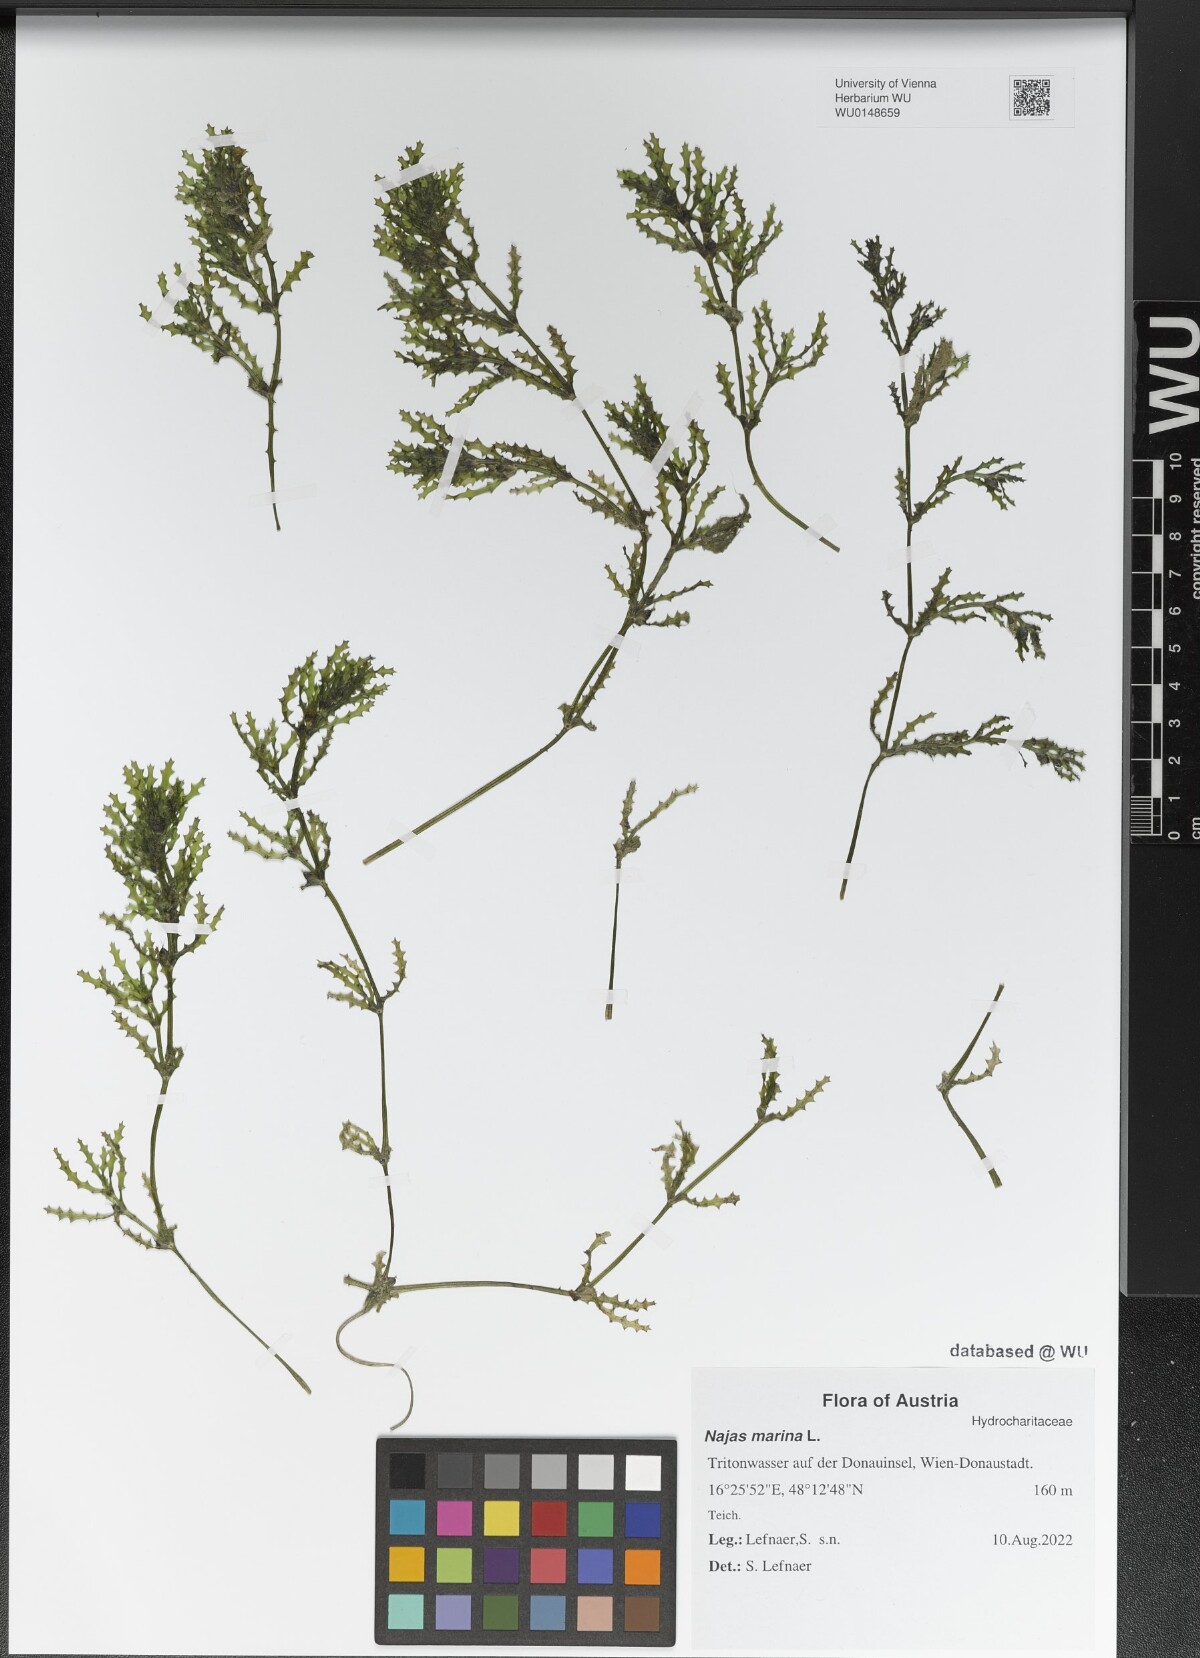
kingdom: Plantae
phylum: Tracheophyta
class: Liliopsida
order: Alismatales
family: Hydrocharitaceae
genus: Najas
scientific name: Najas marina
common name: Holly-leaved naiad
